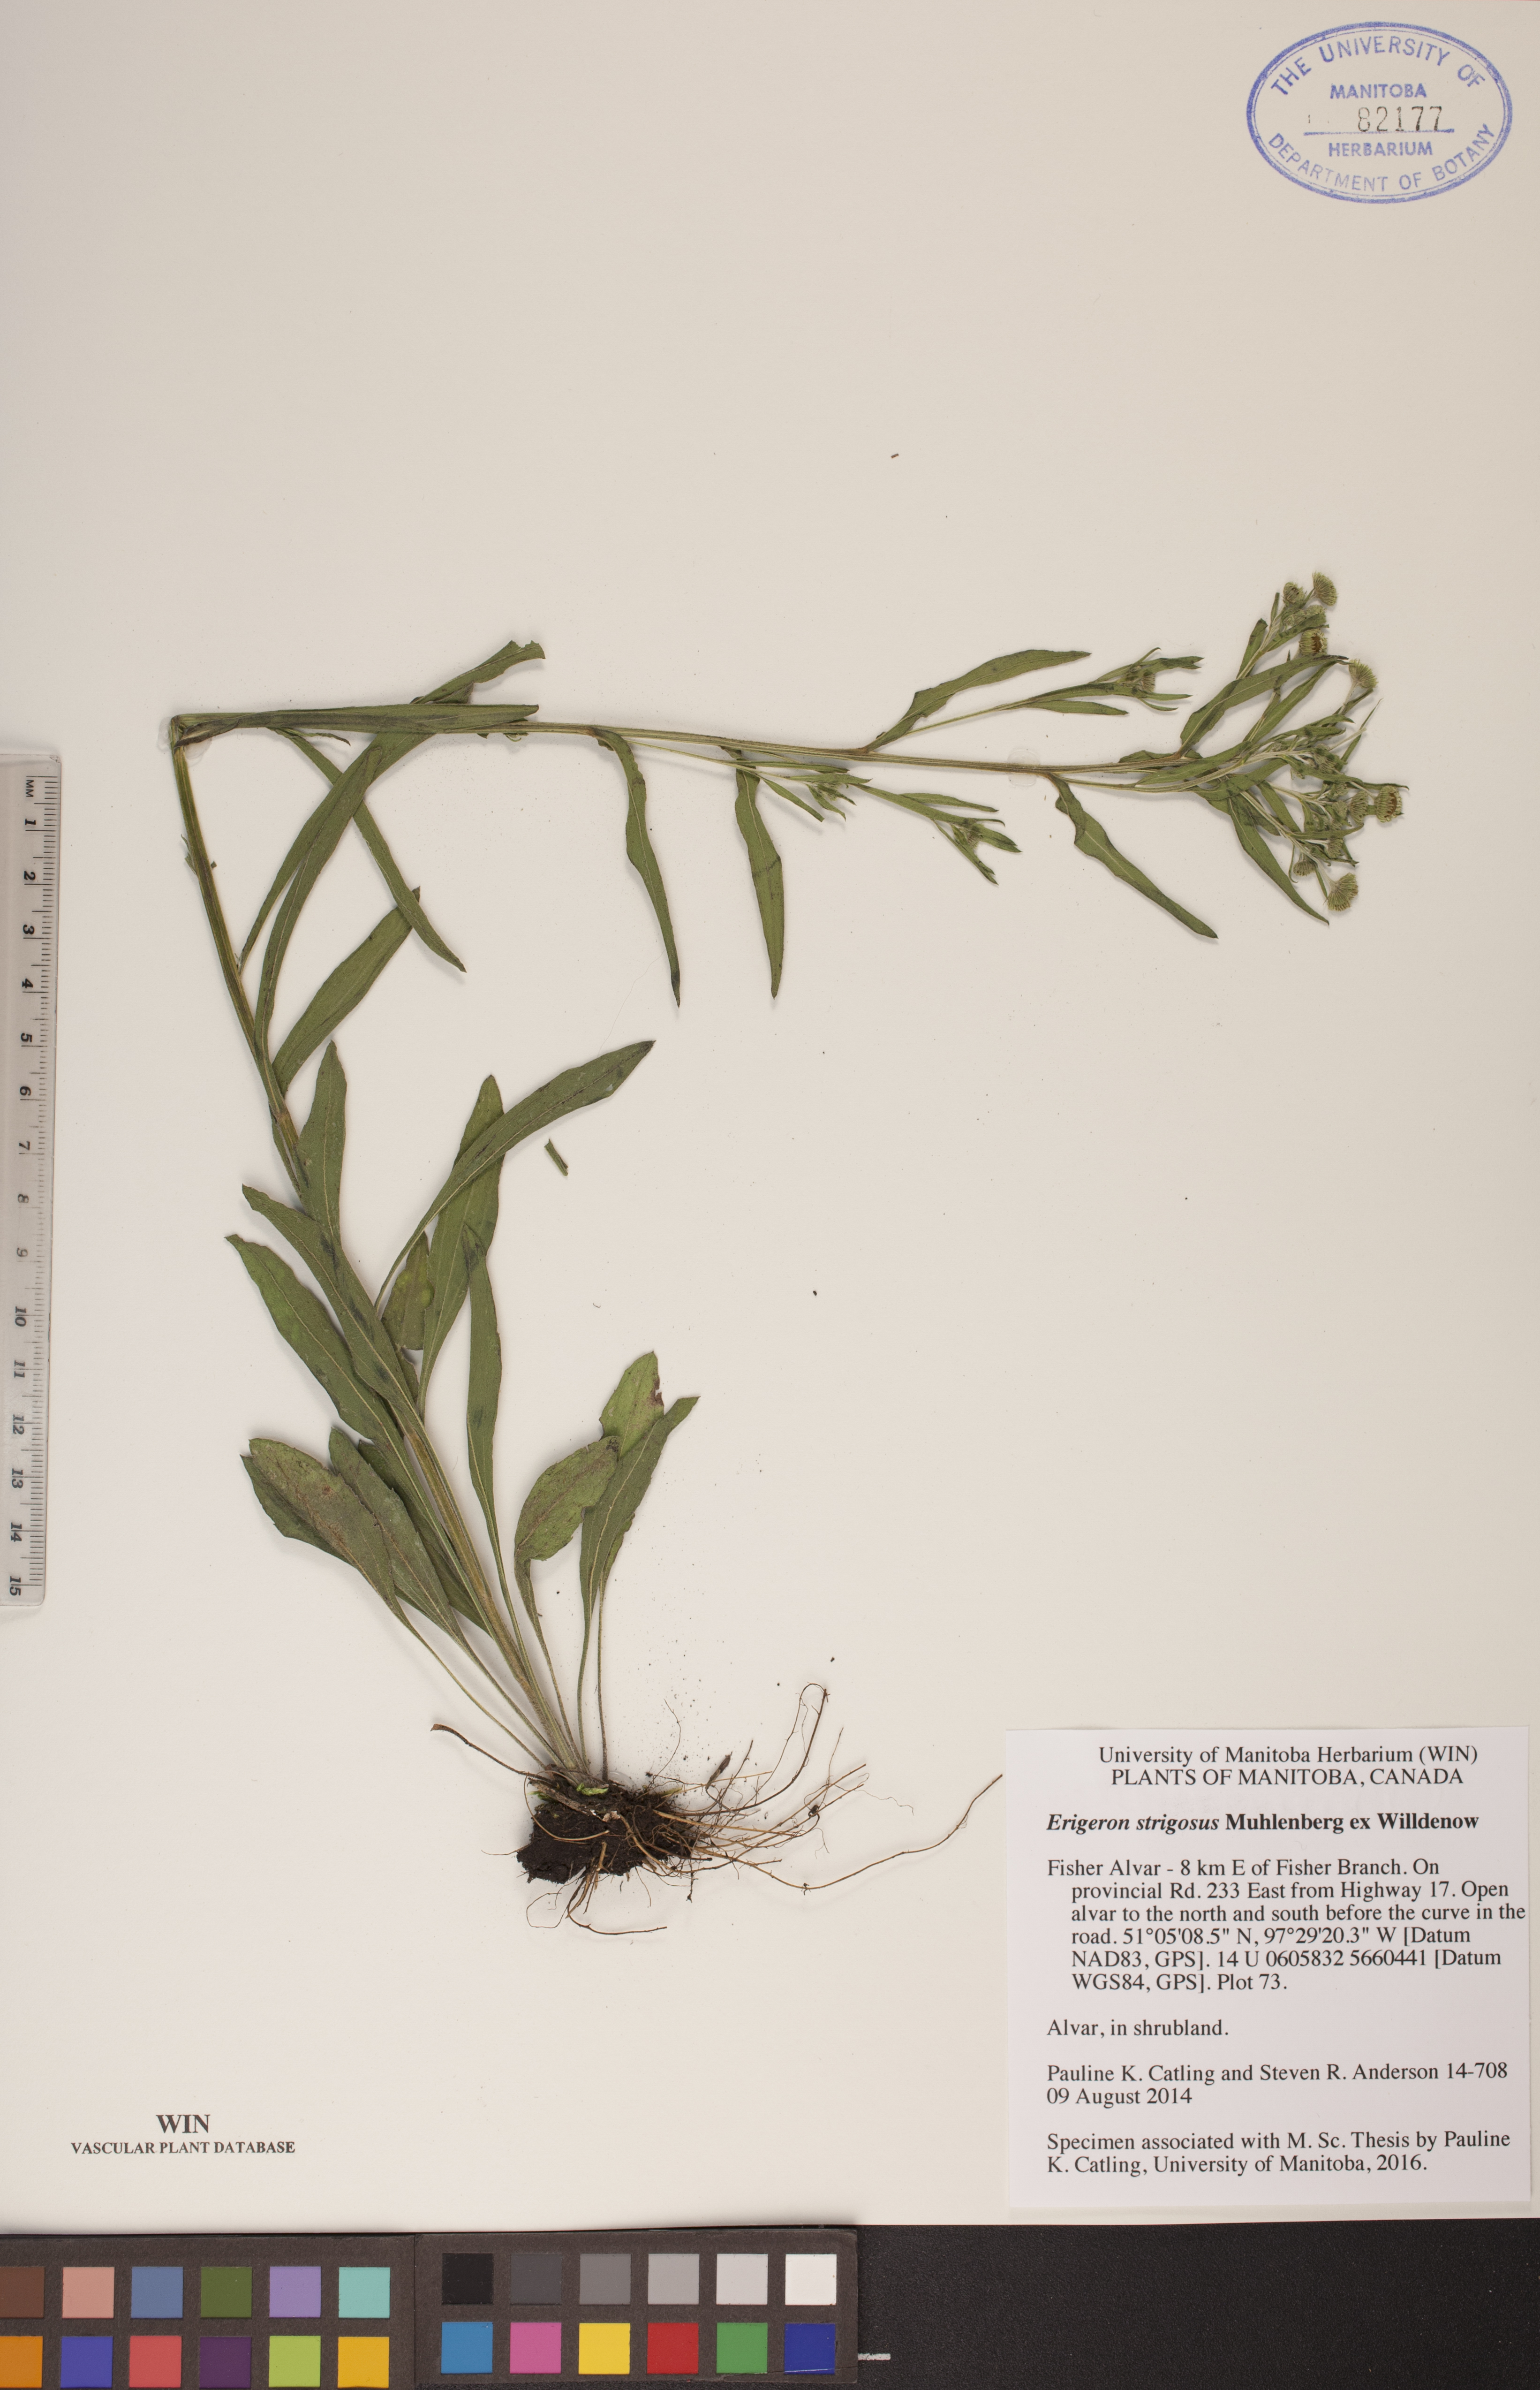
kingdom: Plantae
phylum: Tracheophyta
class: Magnoliopsida
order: Asterales
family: Asteraceae
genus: Erigeron
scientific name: Erigeron strigosus
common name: Common eastern fleabane
